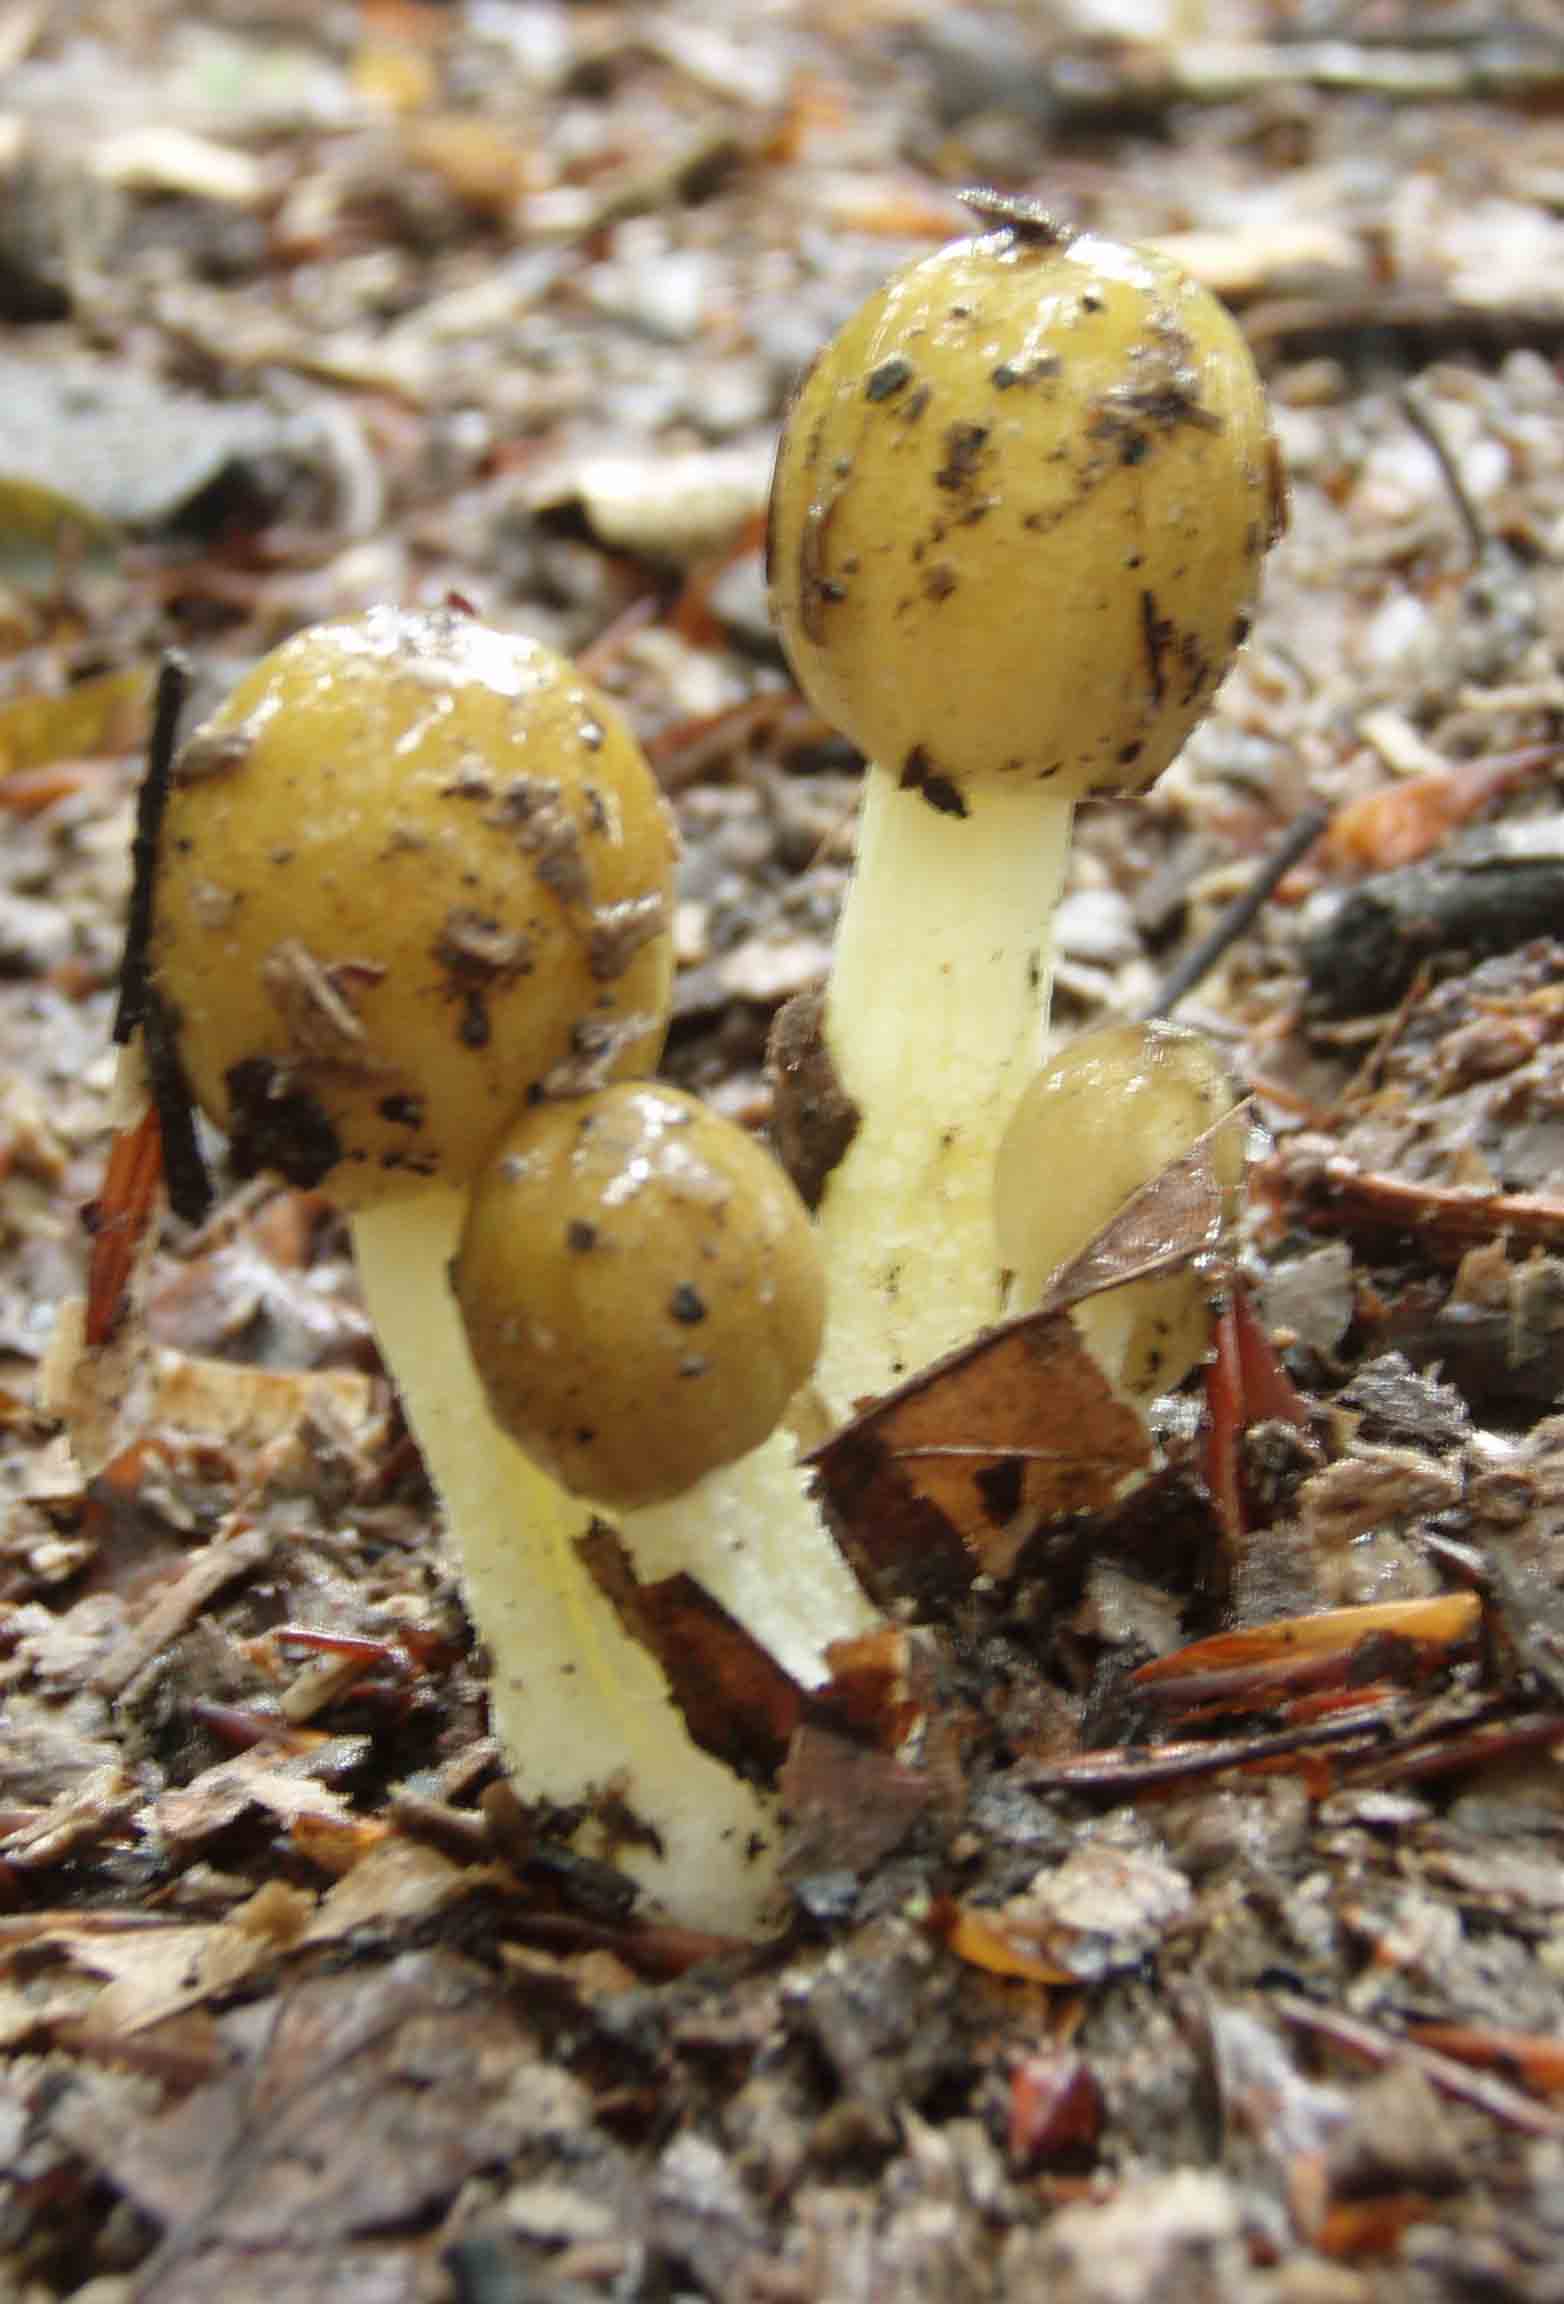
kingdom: Fungi
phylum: Basidiomycota
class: Agaricomycetes
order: Agaricales
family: Bolbitiaceae
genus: Bolbitius
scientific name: Bolbitius titubans
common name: almindelig gulhat
